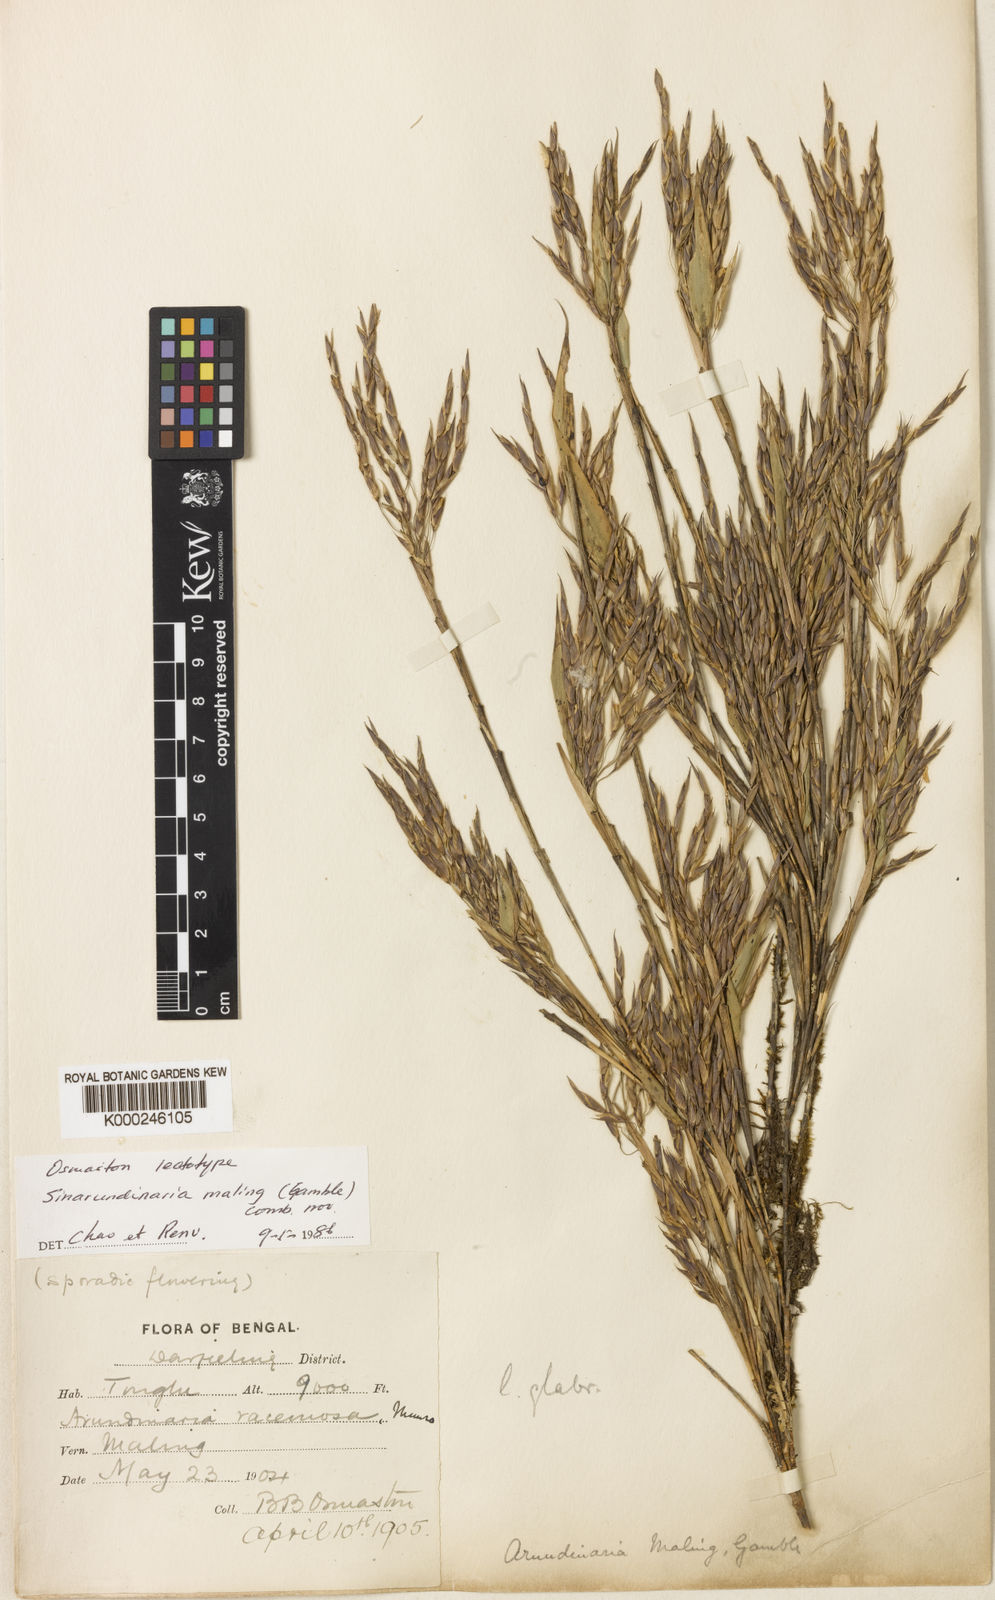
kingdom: Plantae
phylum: Tracheophyta
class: Liliopsida
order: Poales
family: Poaceae
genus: Yushania
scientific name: Yushania maling
